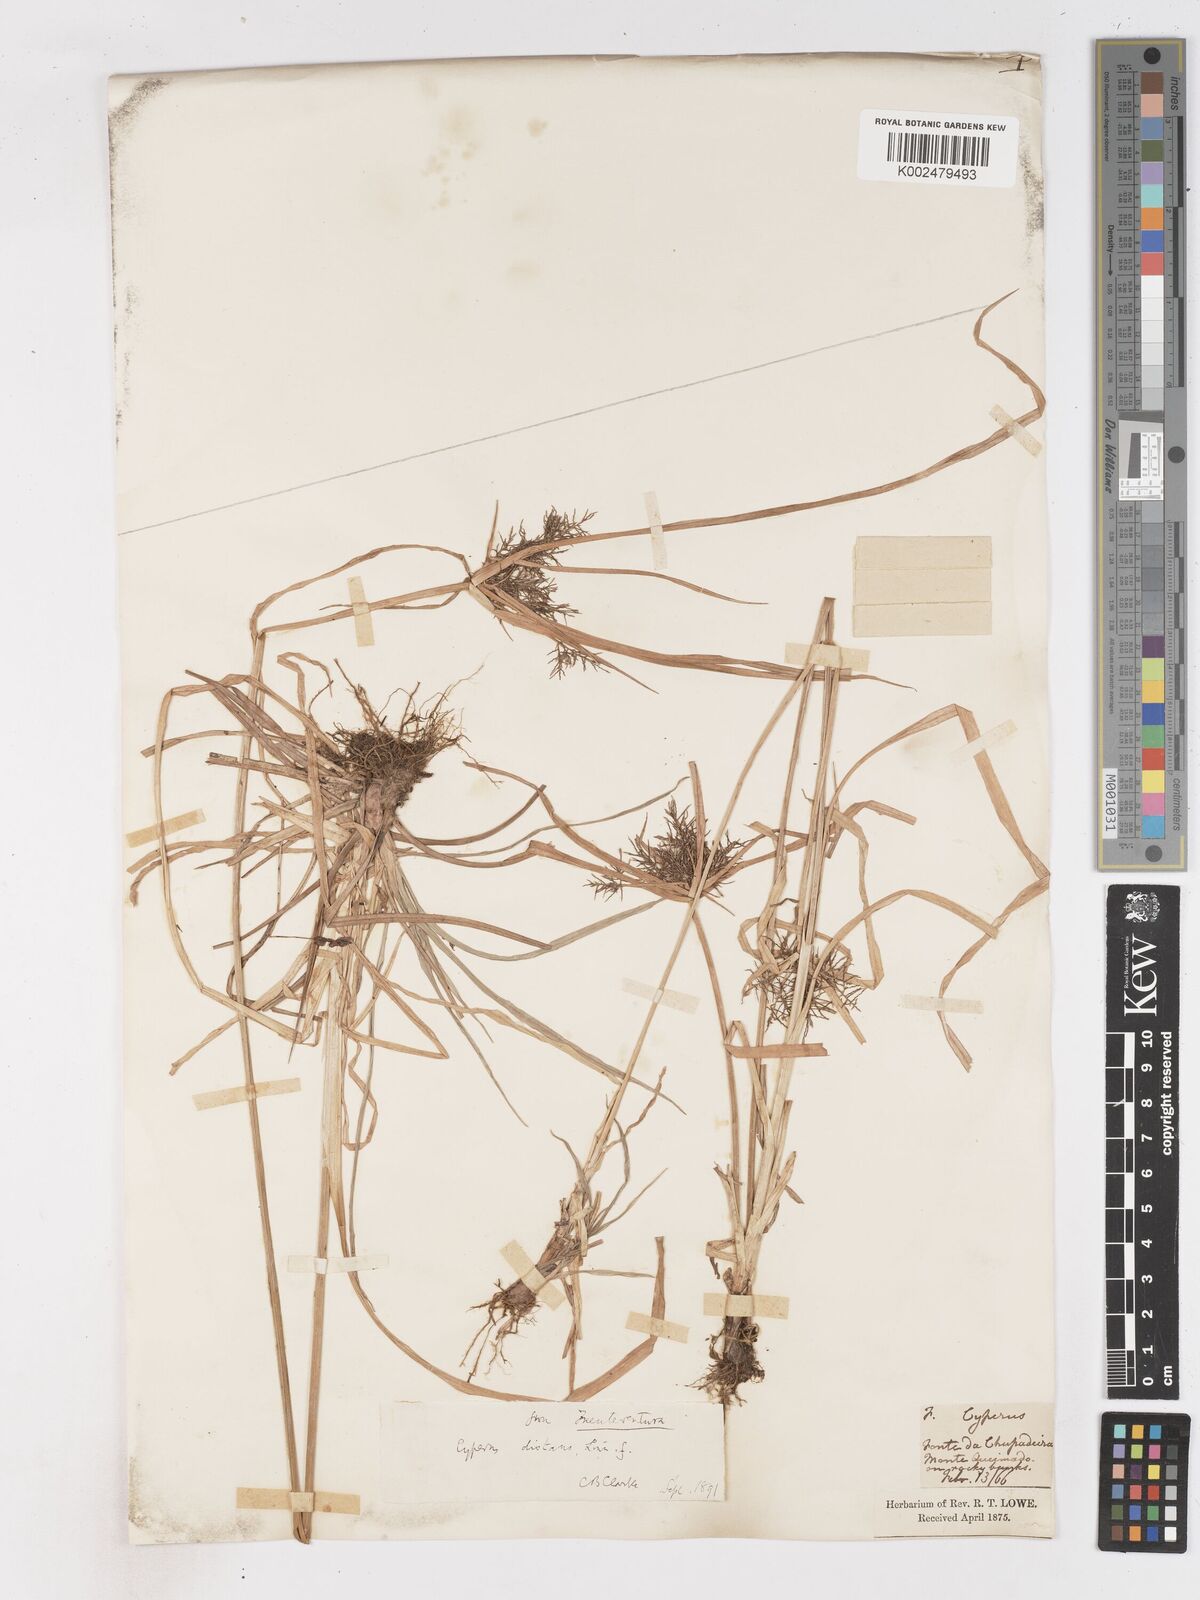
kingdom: Plantae
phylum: Tracheophyta
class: Liliopsida
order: Poales
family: Cyperaceae
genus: Cyperus
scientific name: Cyperus distans
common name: Slender cyperus
